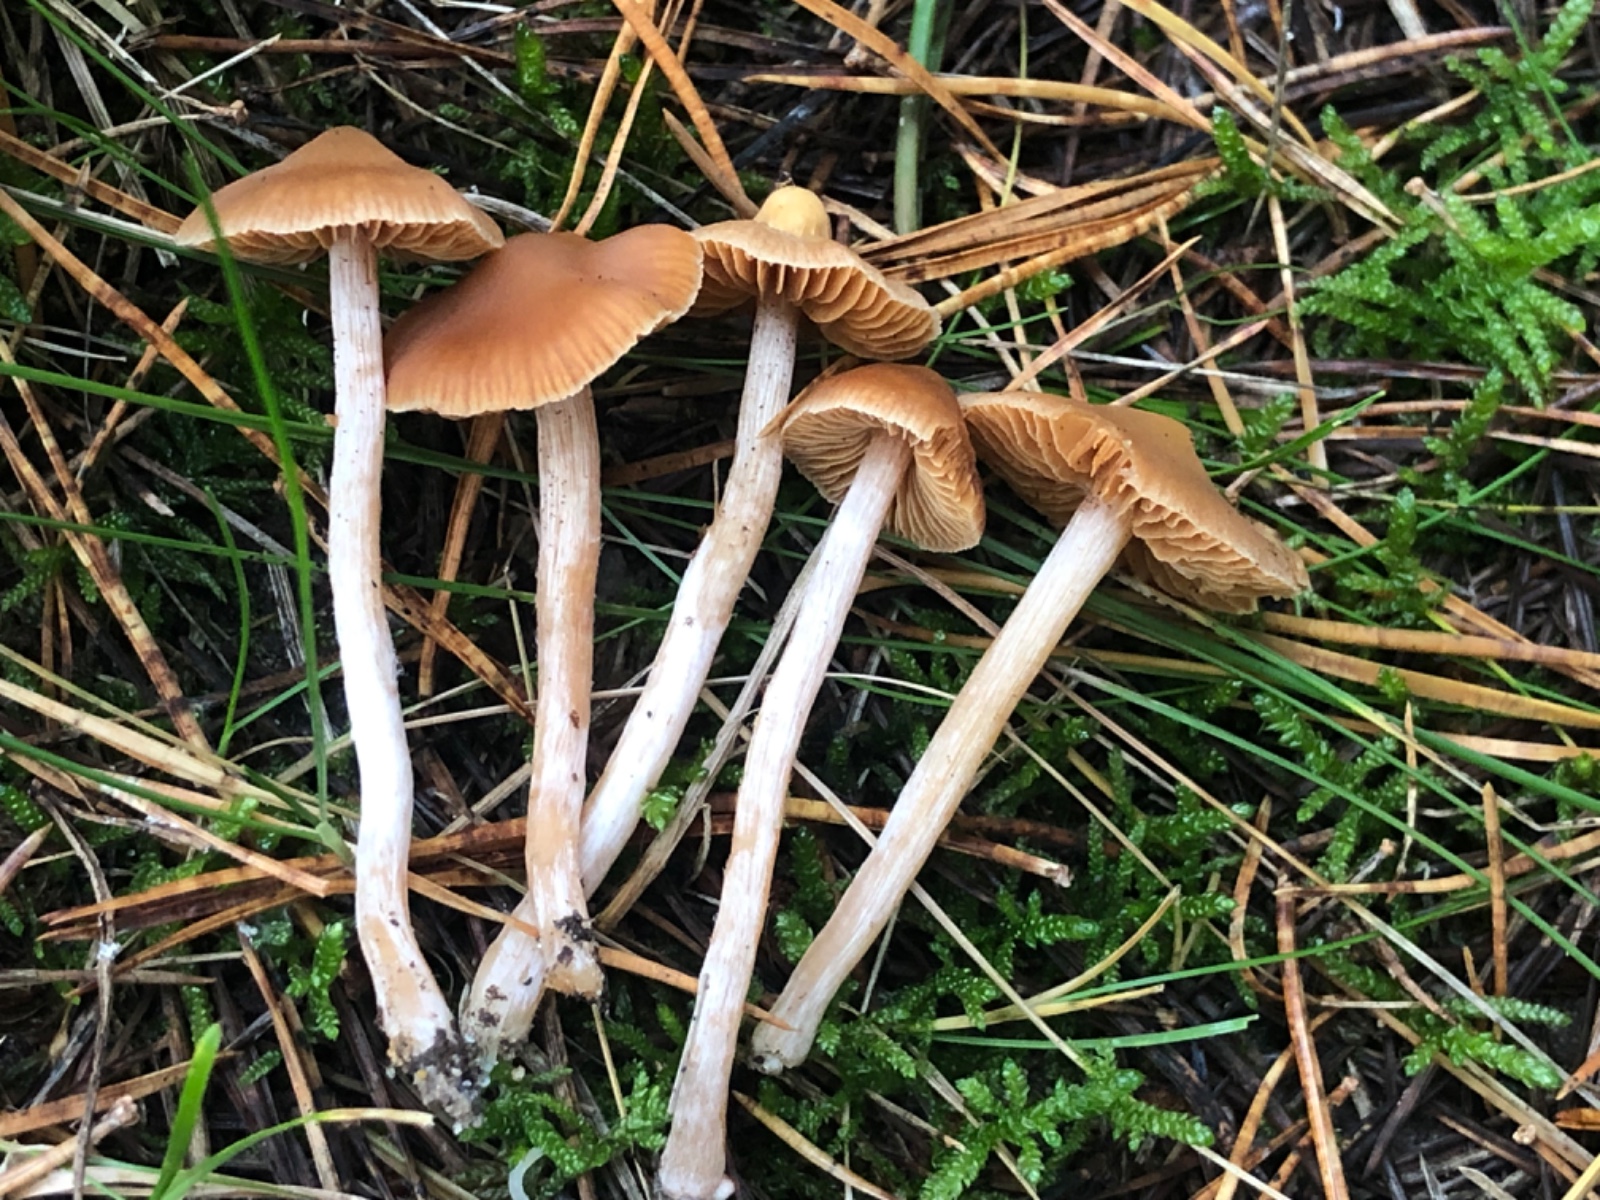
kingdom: Fungi
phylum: Basidiomycota
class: Agaricomycetes
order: Agaricales
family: Cortinariaceae
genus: Cortinarius
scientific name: Cortinarius
